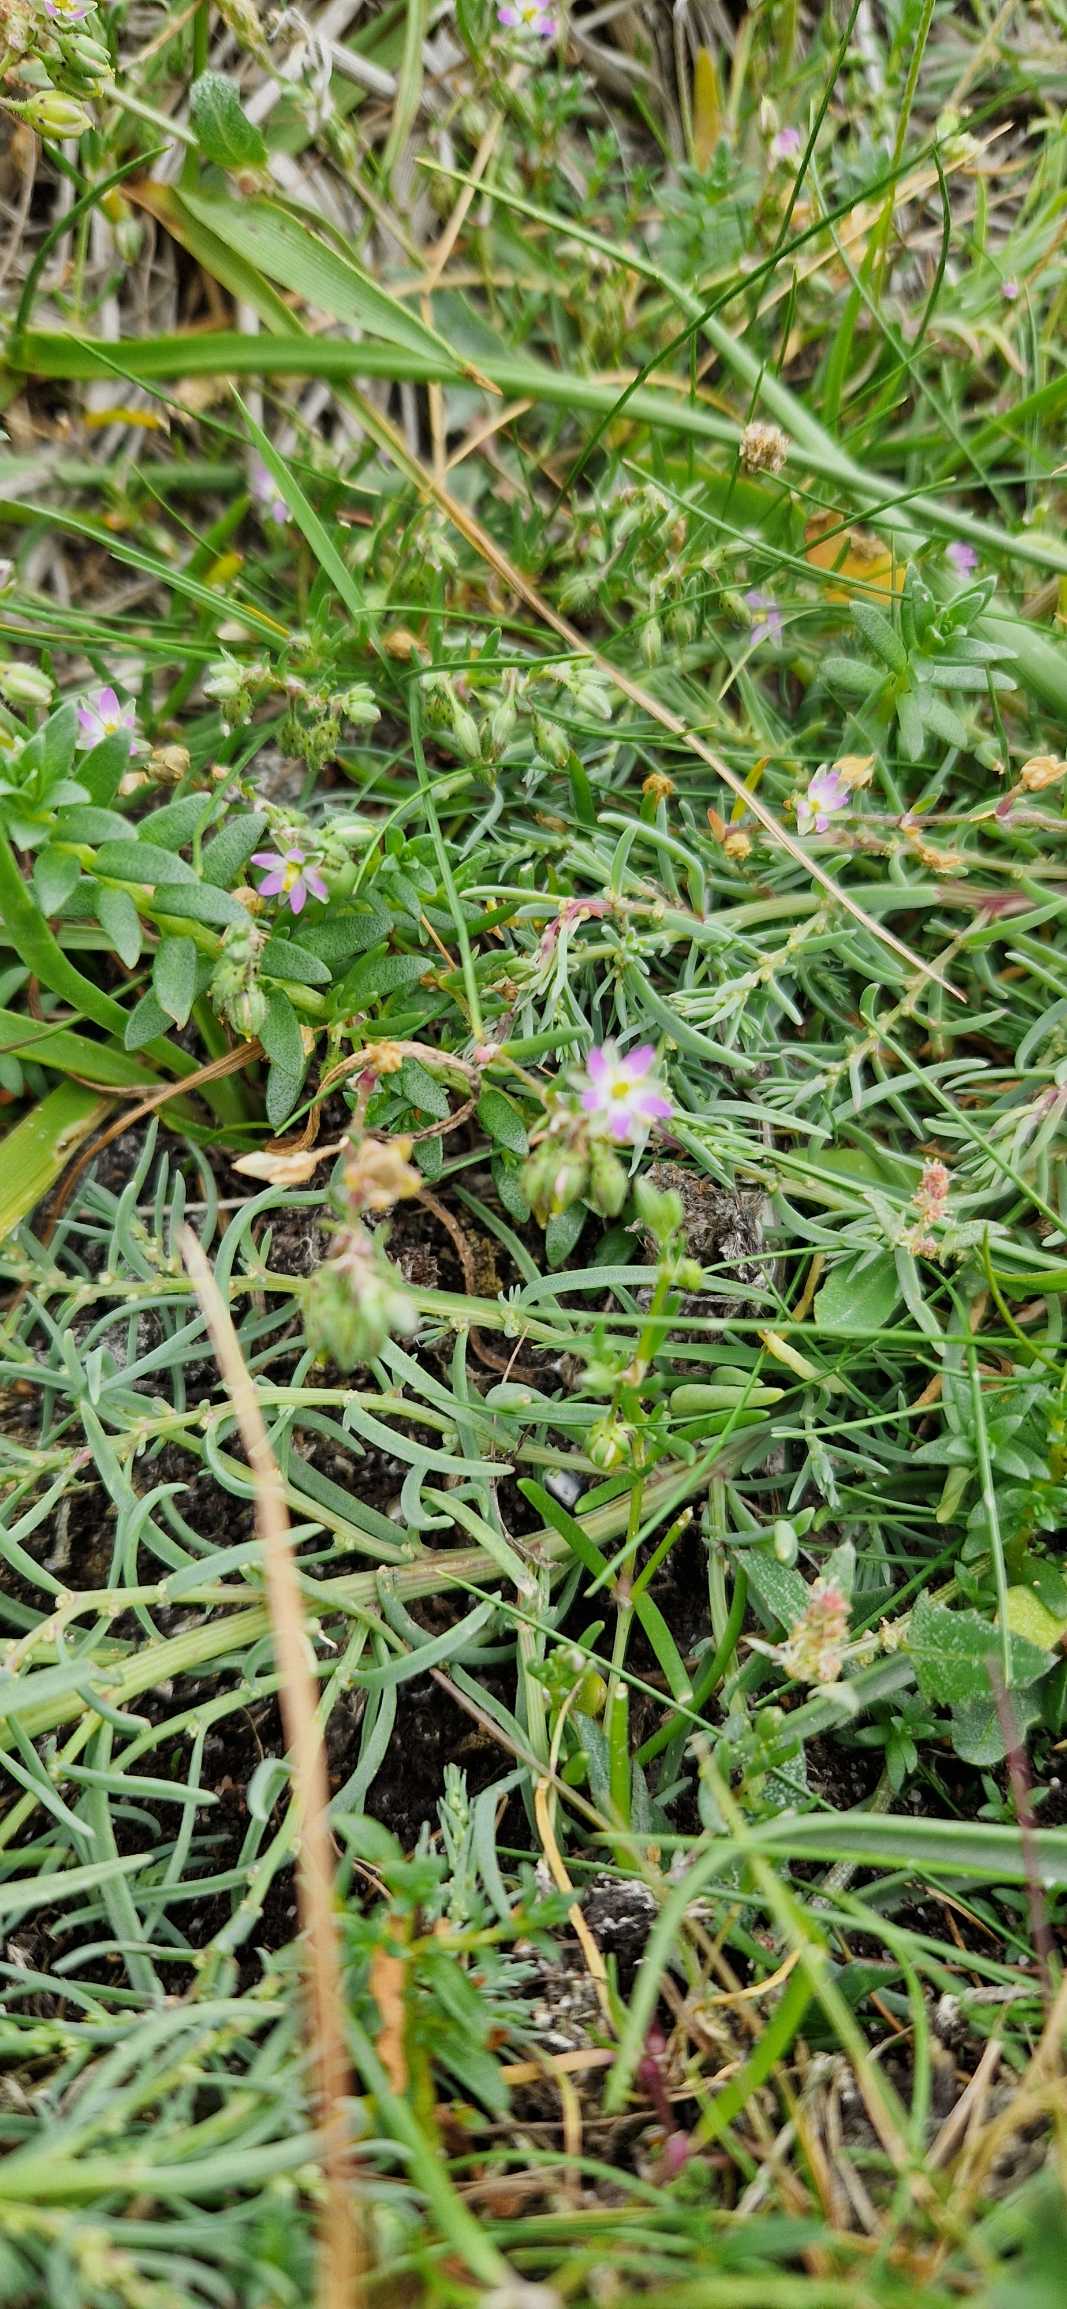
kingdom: Plantae
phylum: Tracheophyta
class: Magnoliopsida
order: Caryophyllales
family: Caryophyllaceae
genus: Spergularia
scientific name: Spergularia marina
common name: Kødet hindeknæ
